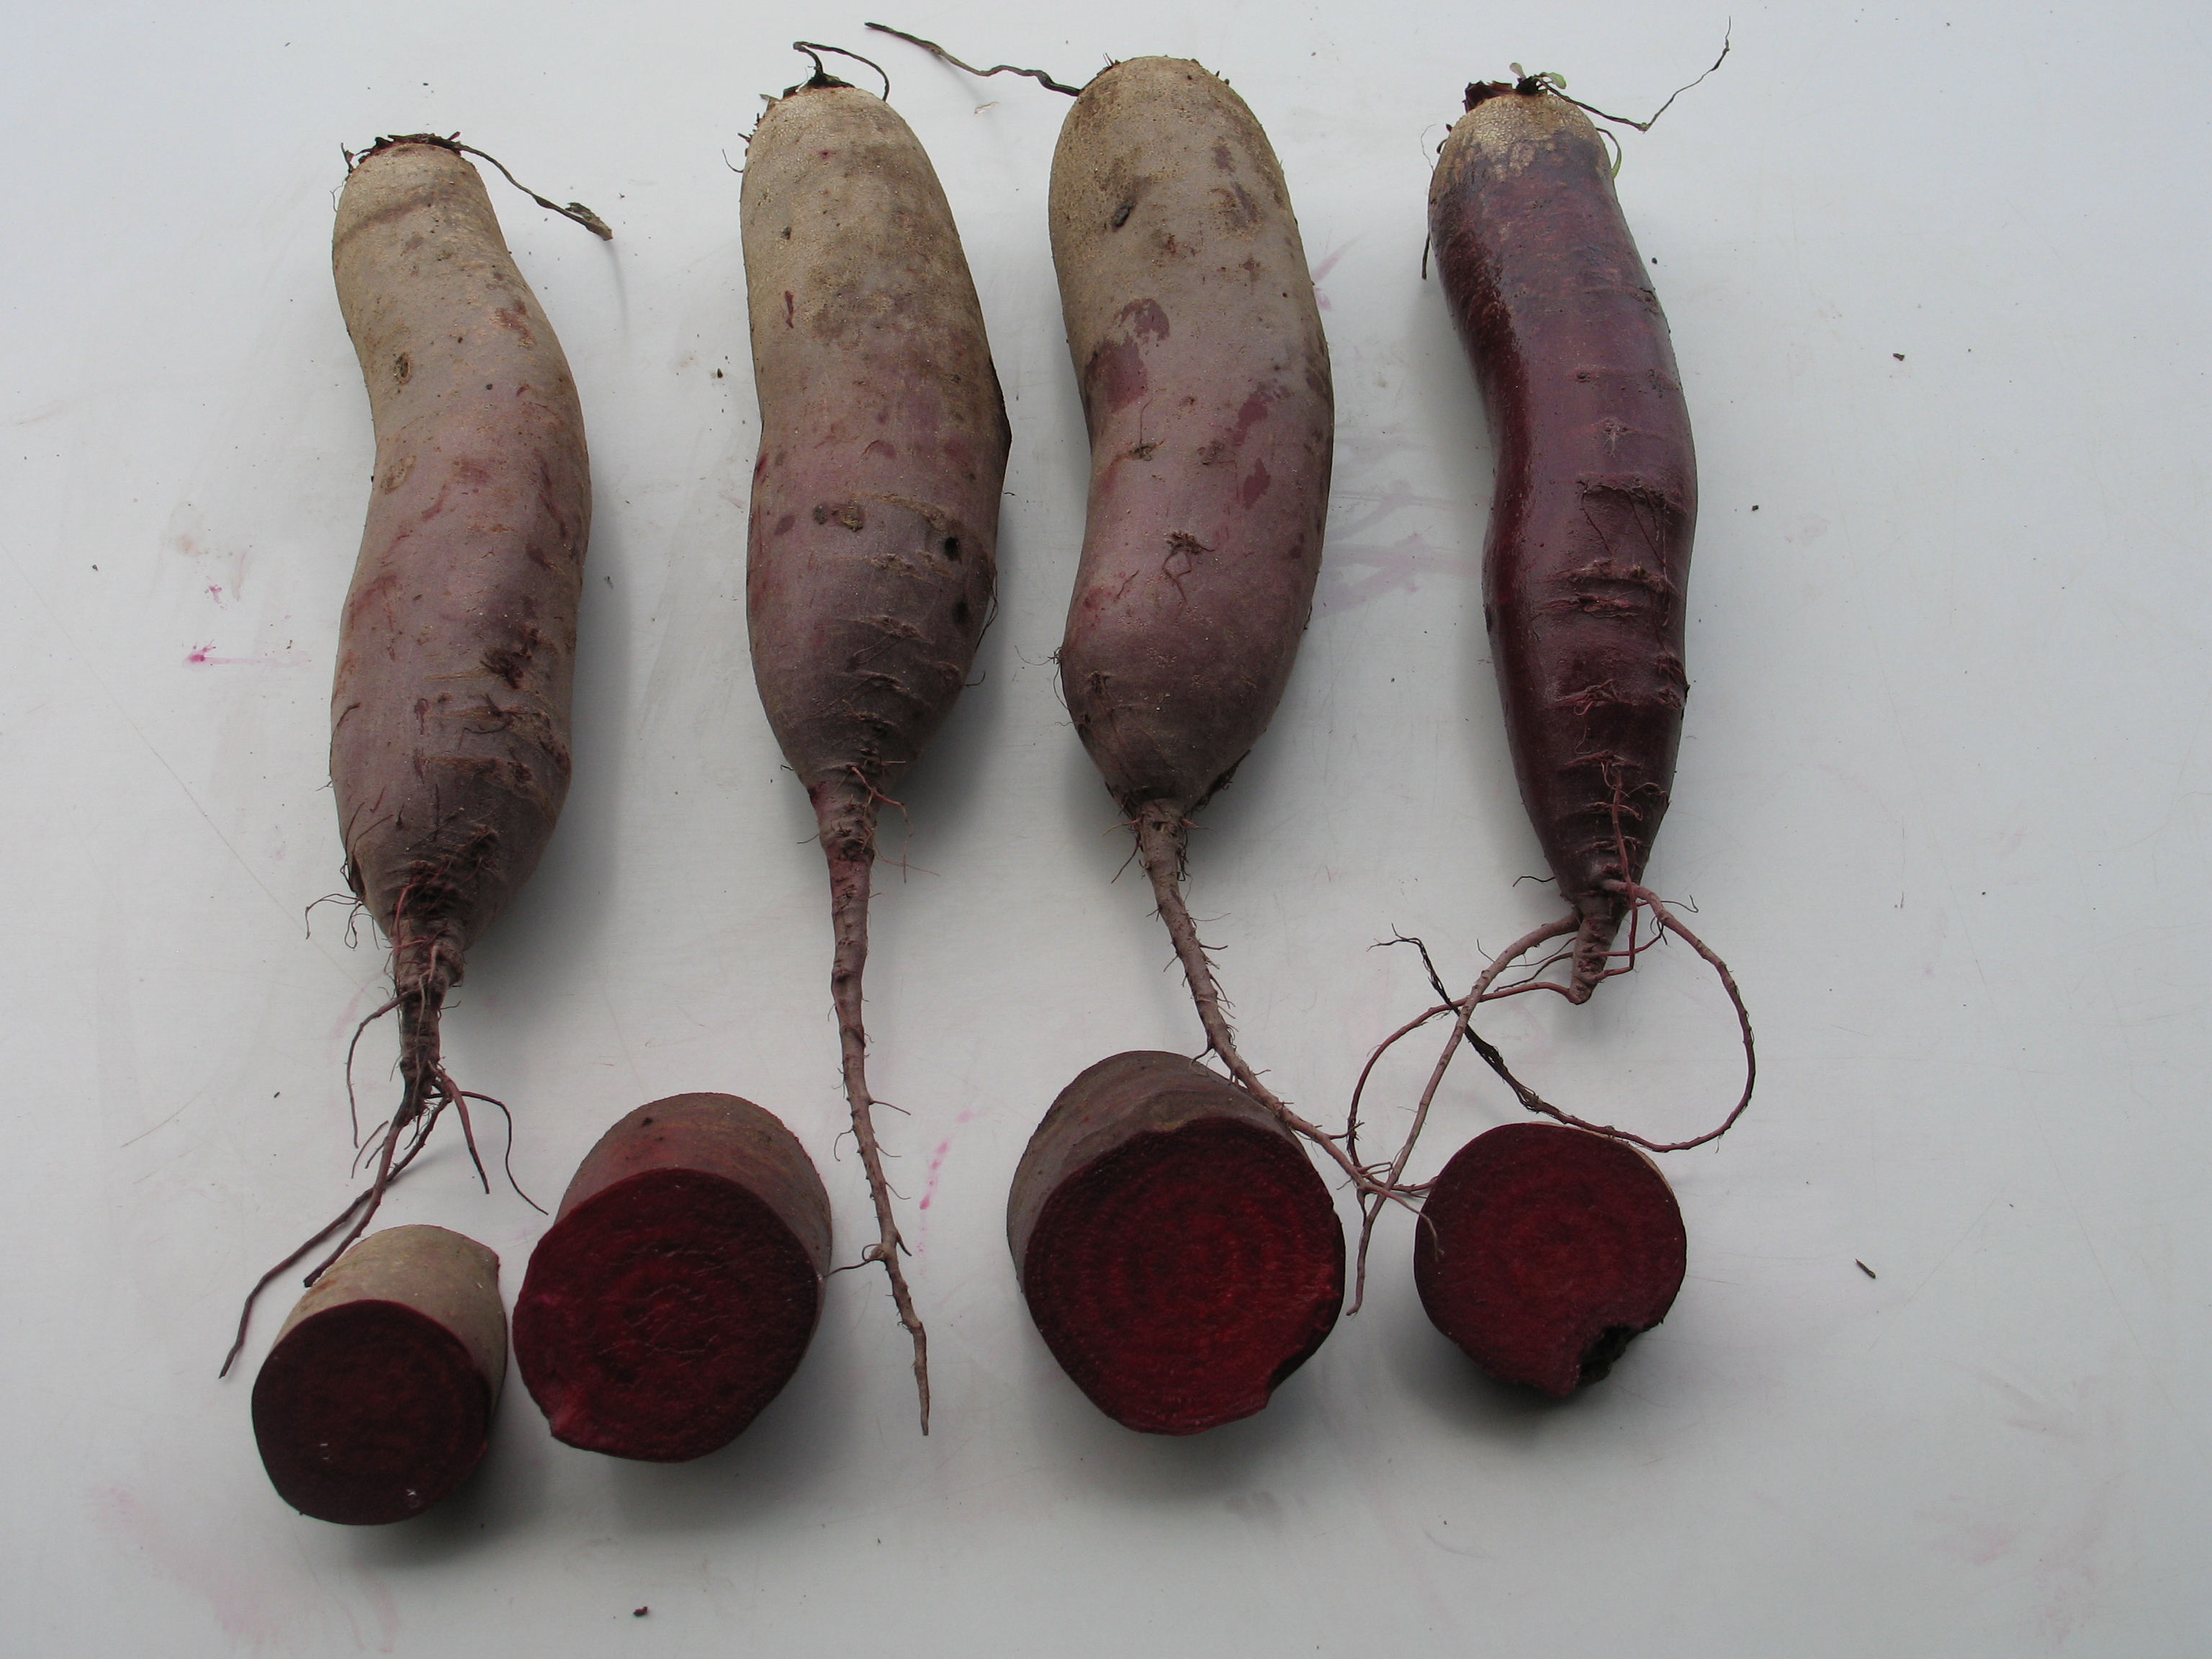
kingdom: Plantae
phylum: Tracheophyta
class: Magnoliopsida
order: Caryophyllales
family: Amaranthaceae
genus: Beta
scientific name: Beta vulgaris
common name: Beet
